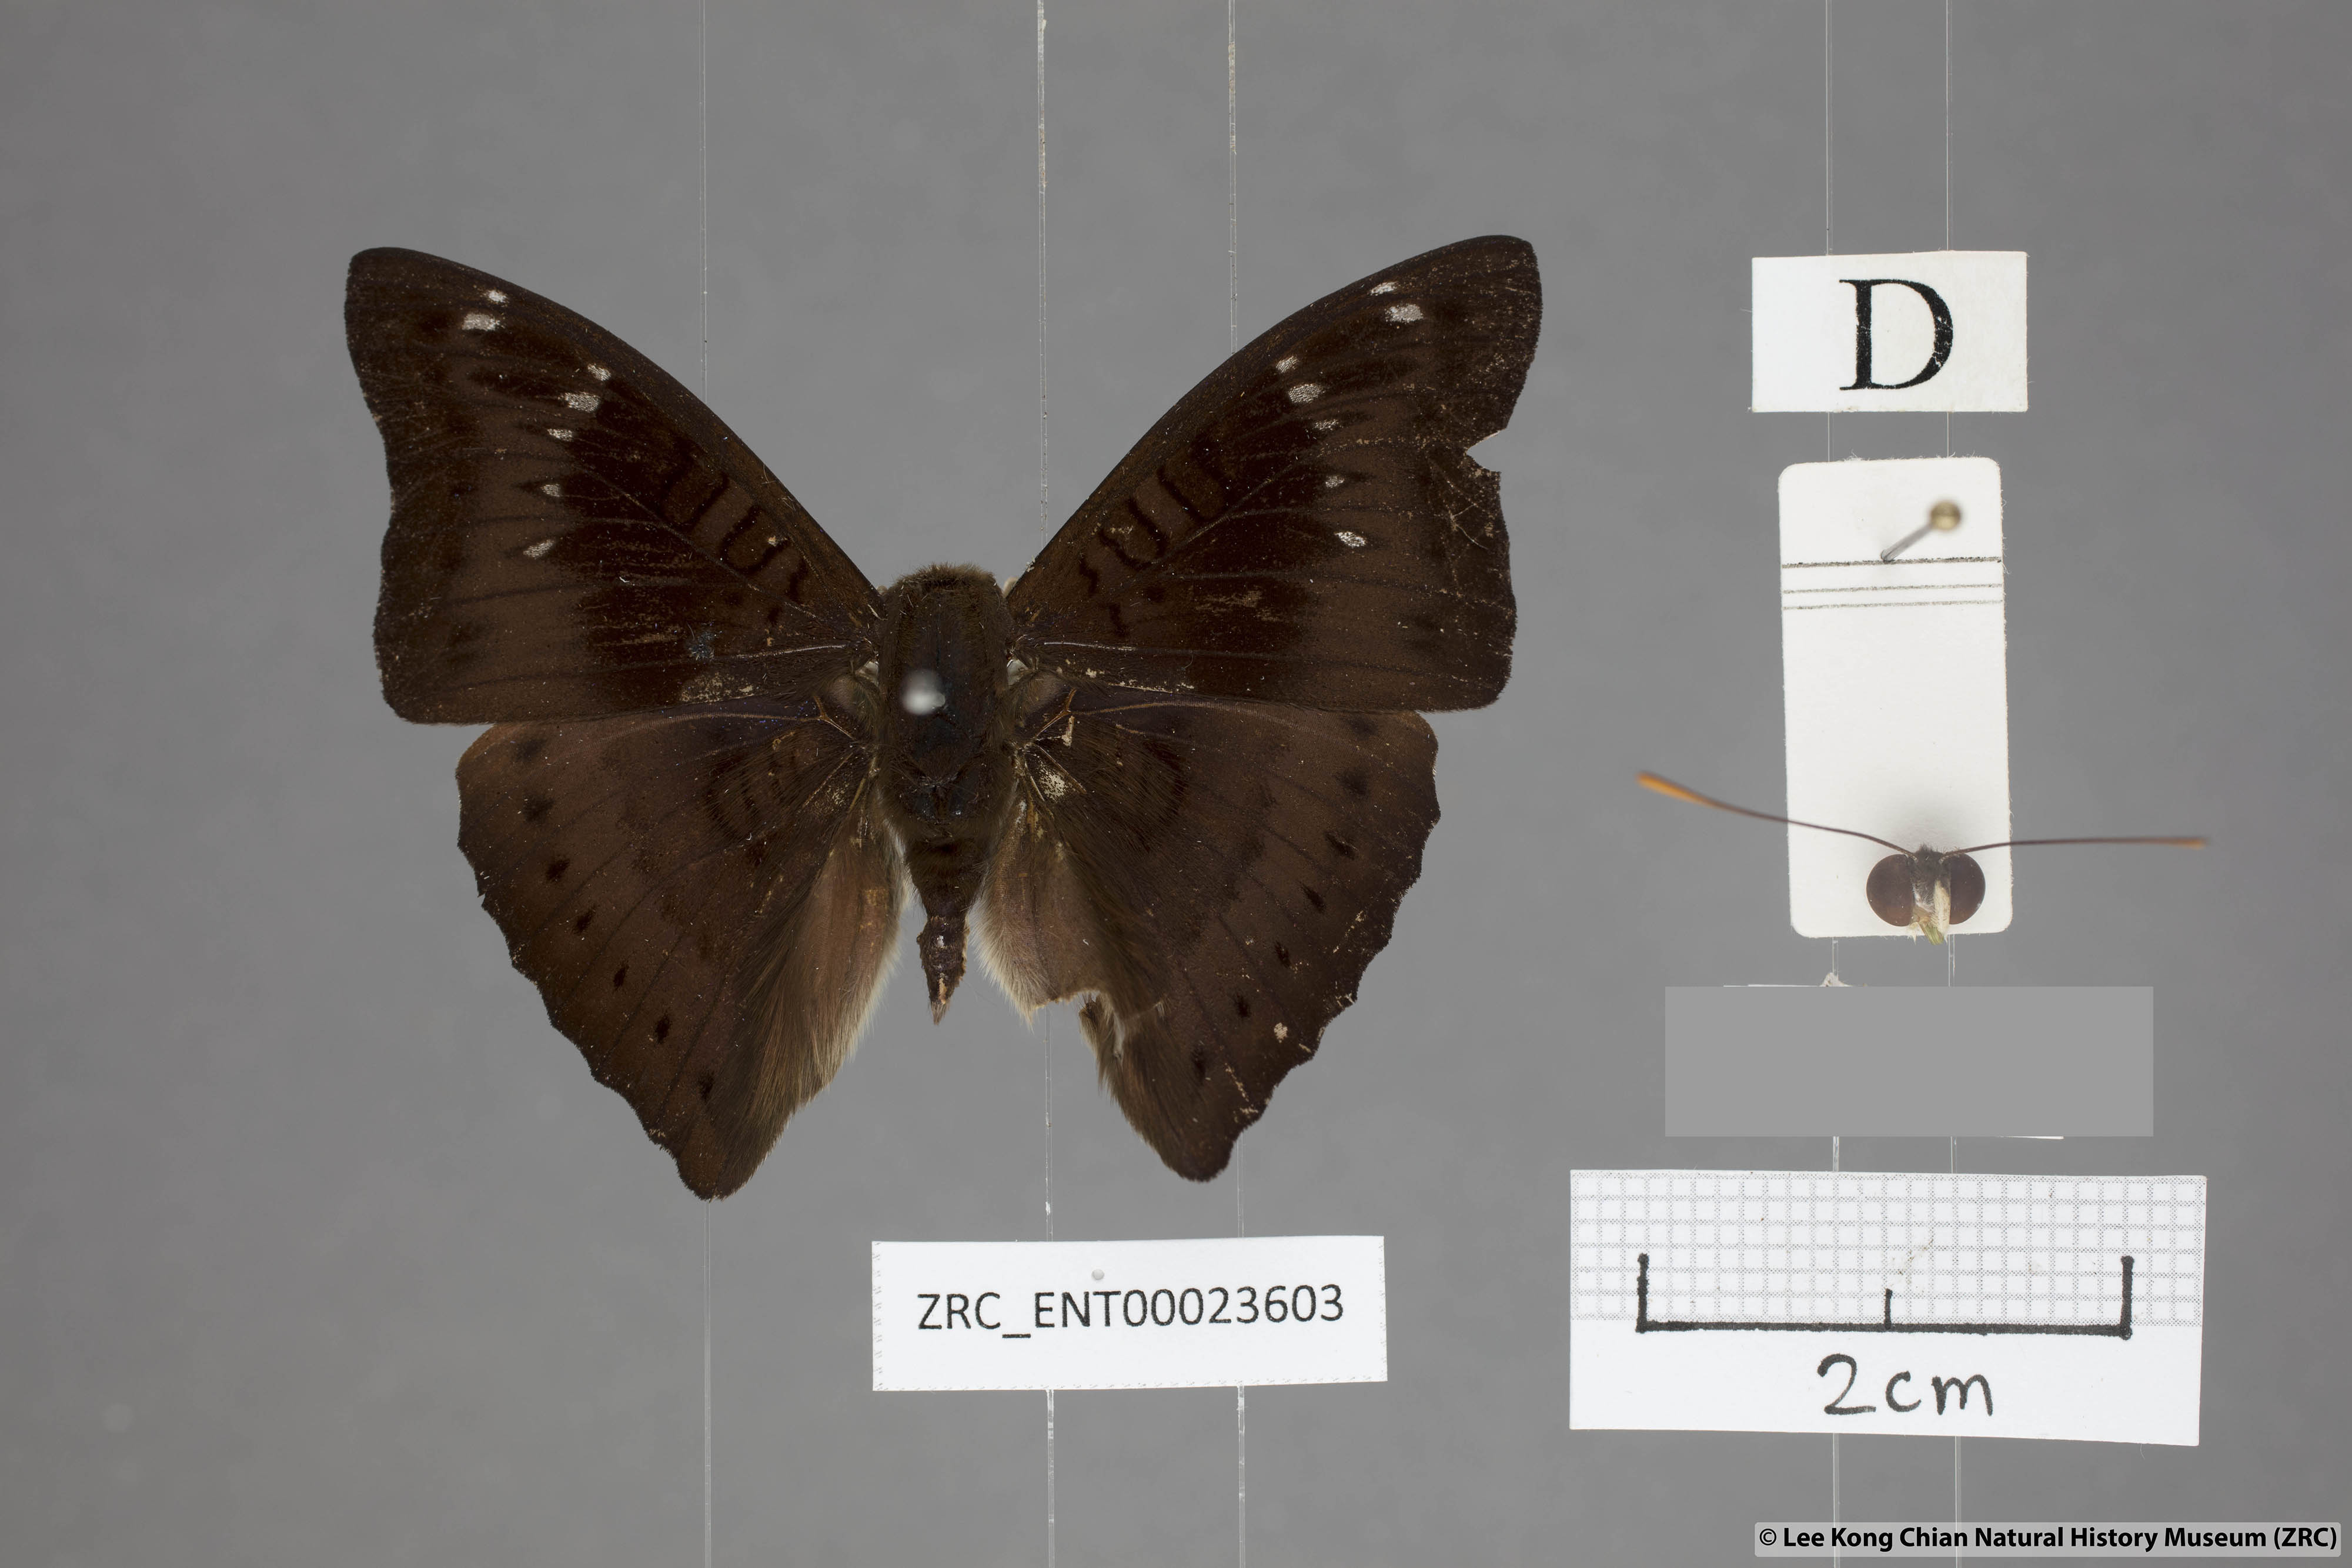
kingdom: Animalia
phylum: Arthropoda
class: Insecta
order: Lepidoptera
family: Nymphalidae
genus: Euthalia
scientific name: Euthalia agnis
